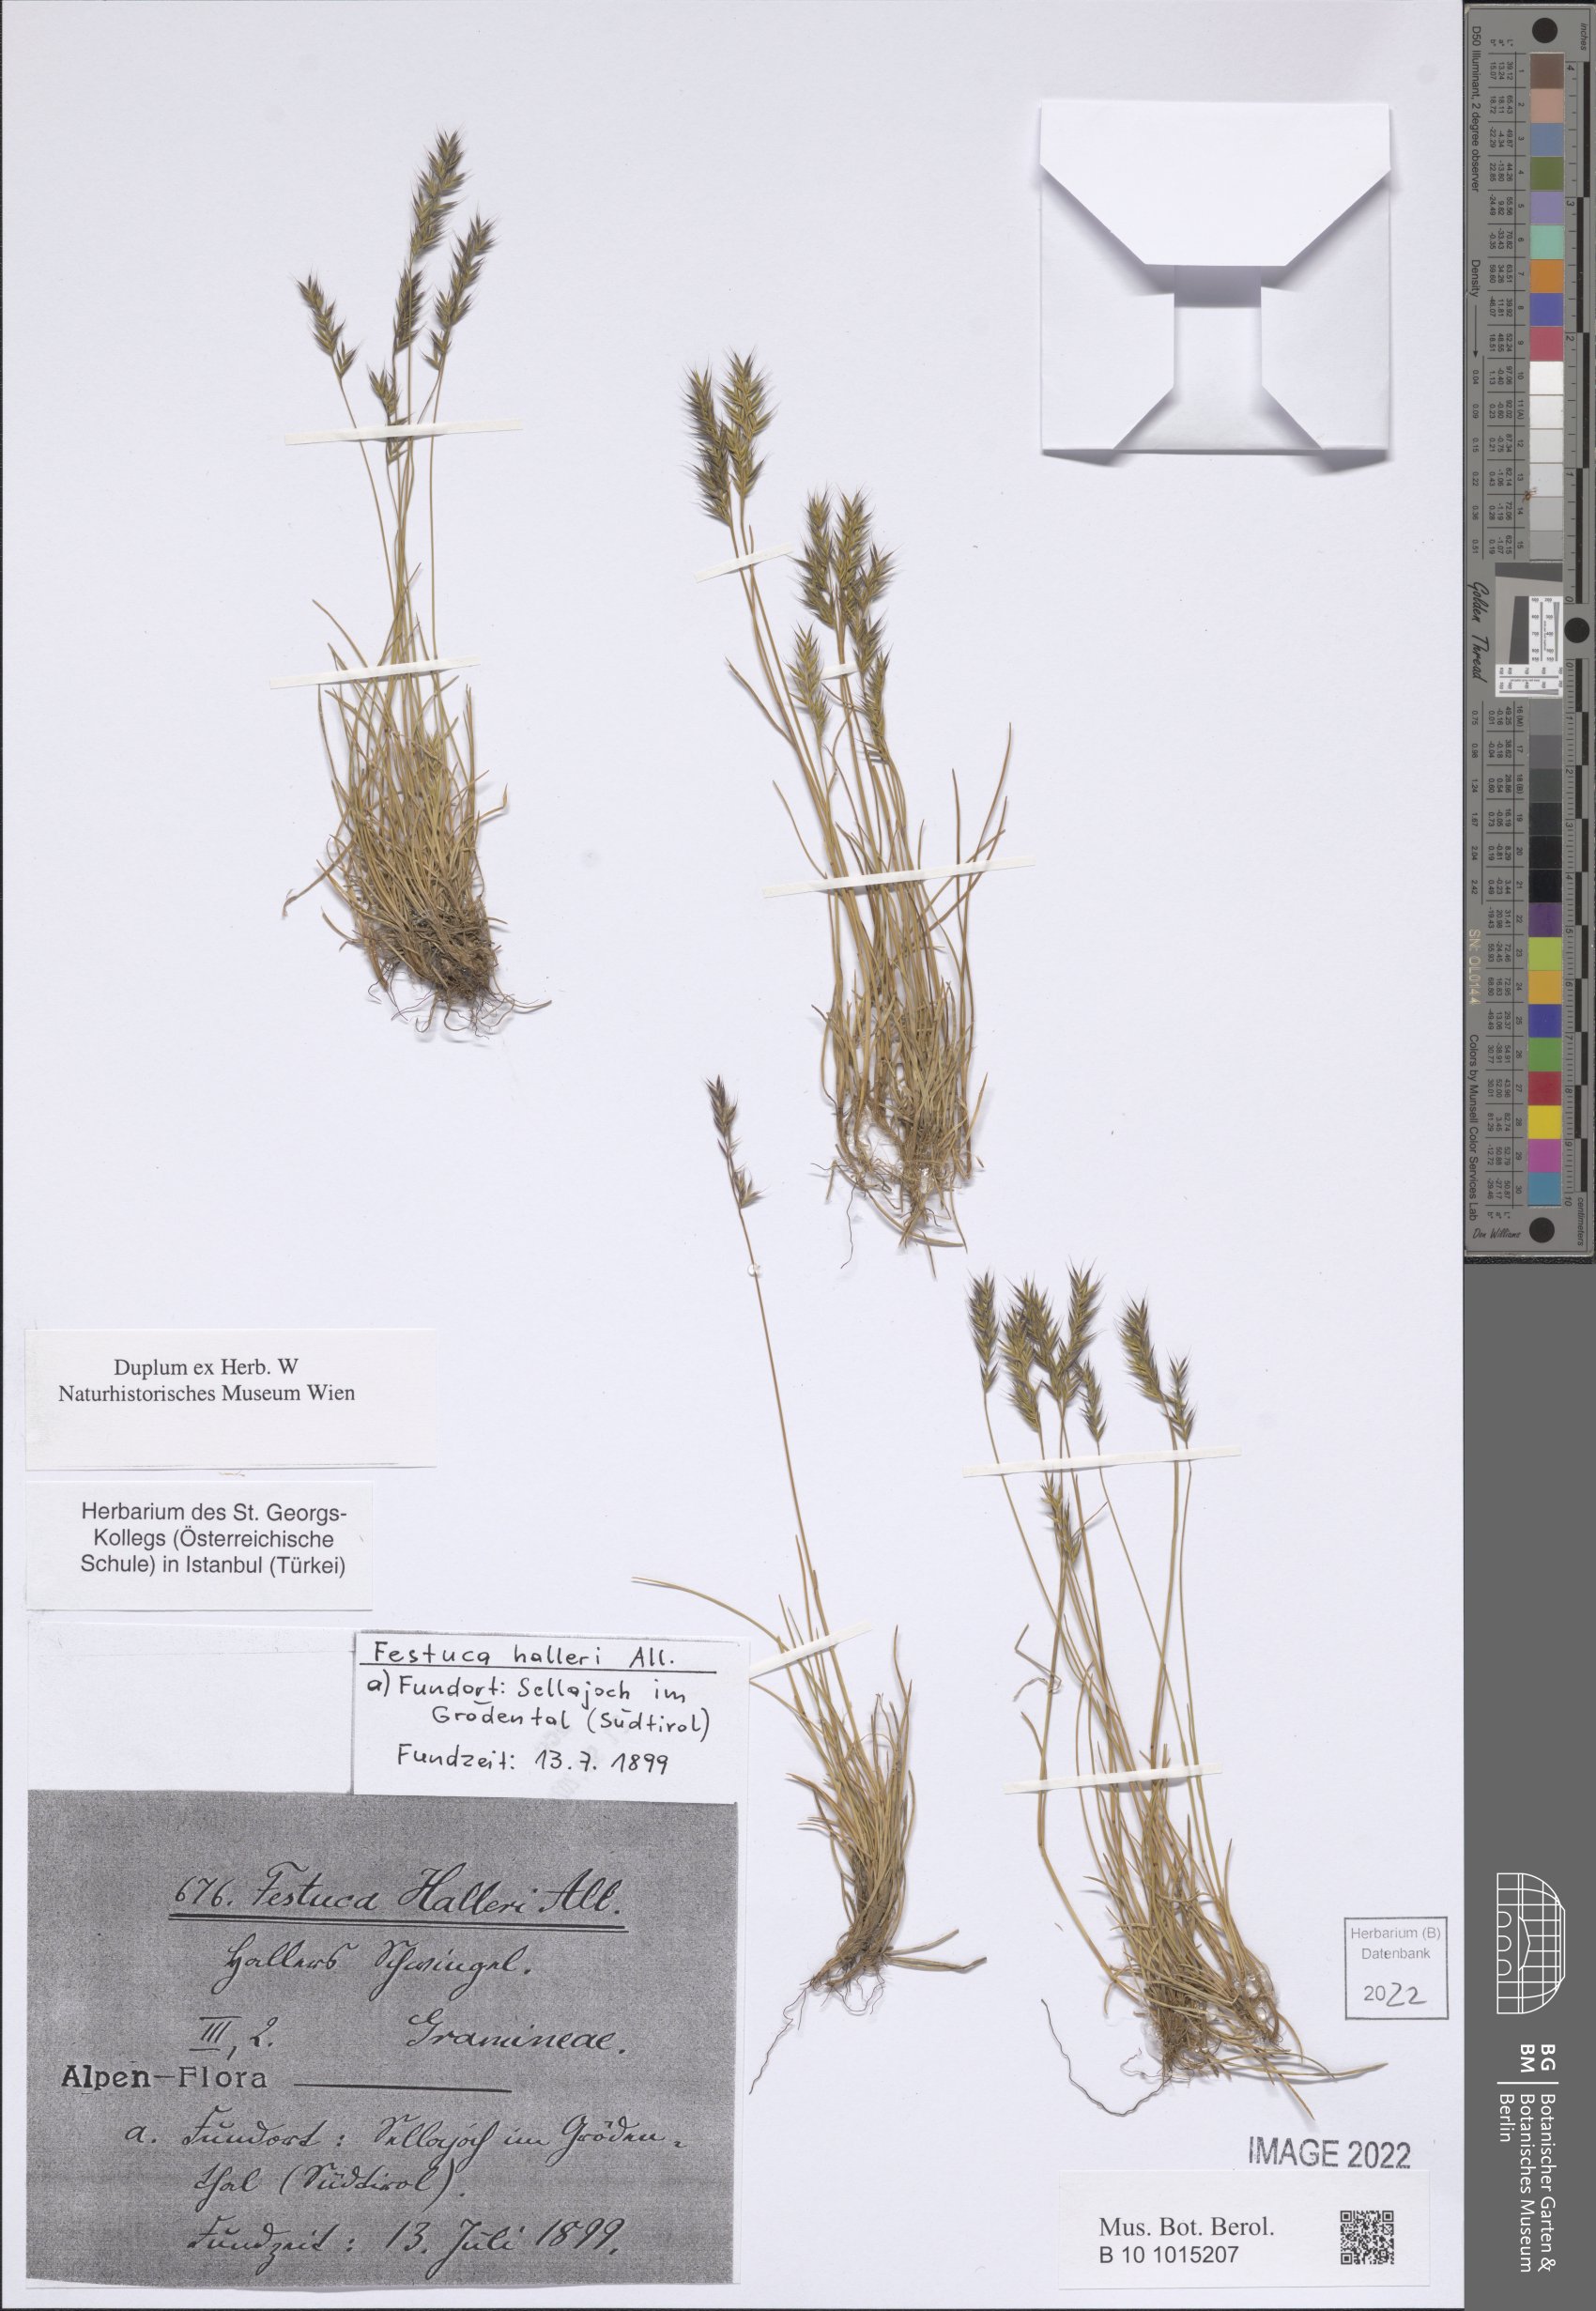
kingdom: Plantae
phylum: Tracheophyta
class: Liliopsida
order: Poales
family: Poaceae
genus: Festuca
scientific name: Festuca halleri
